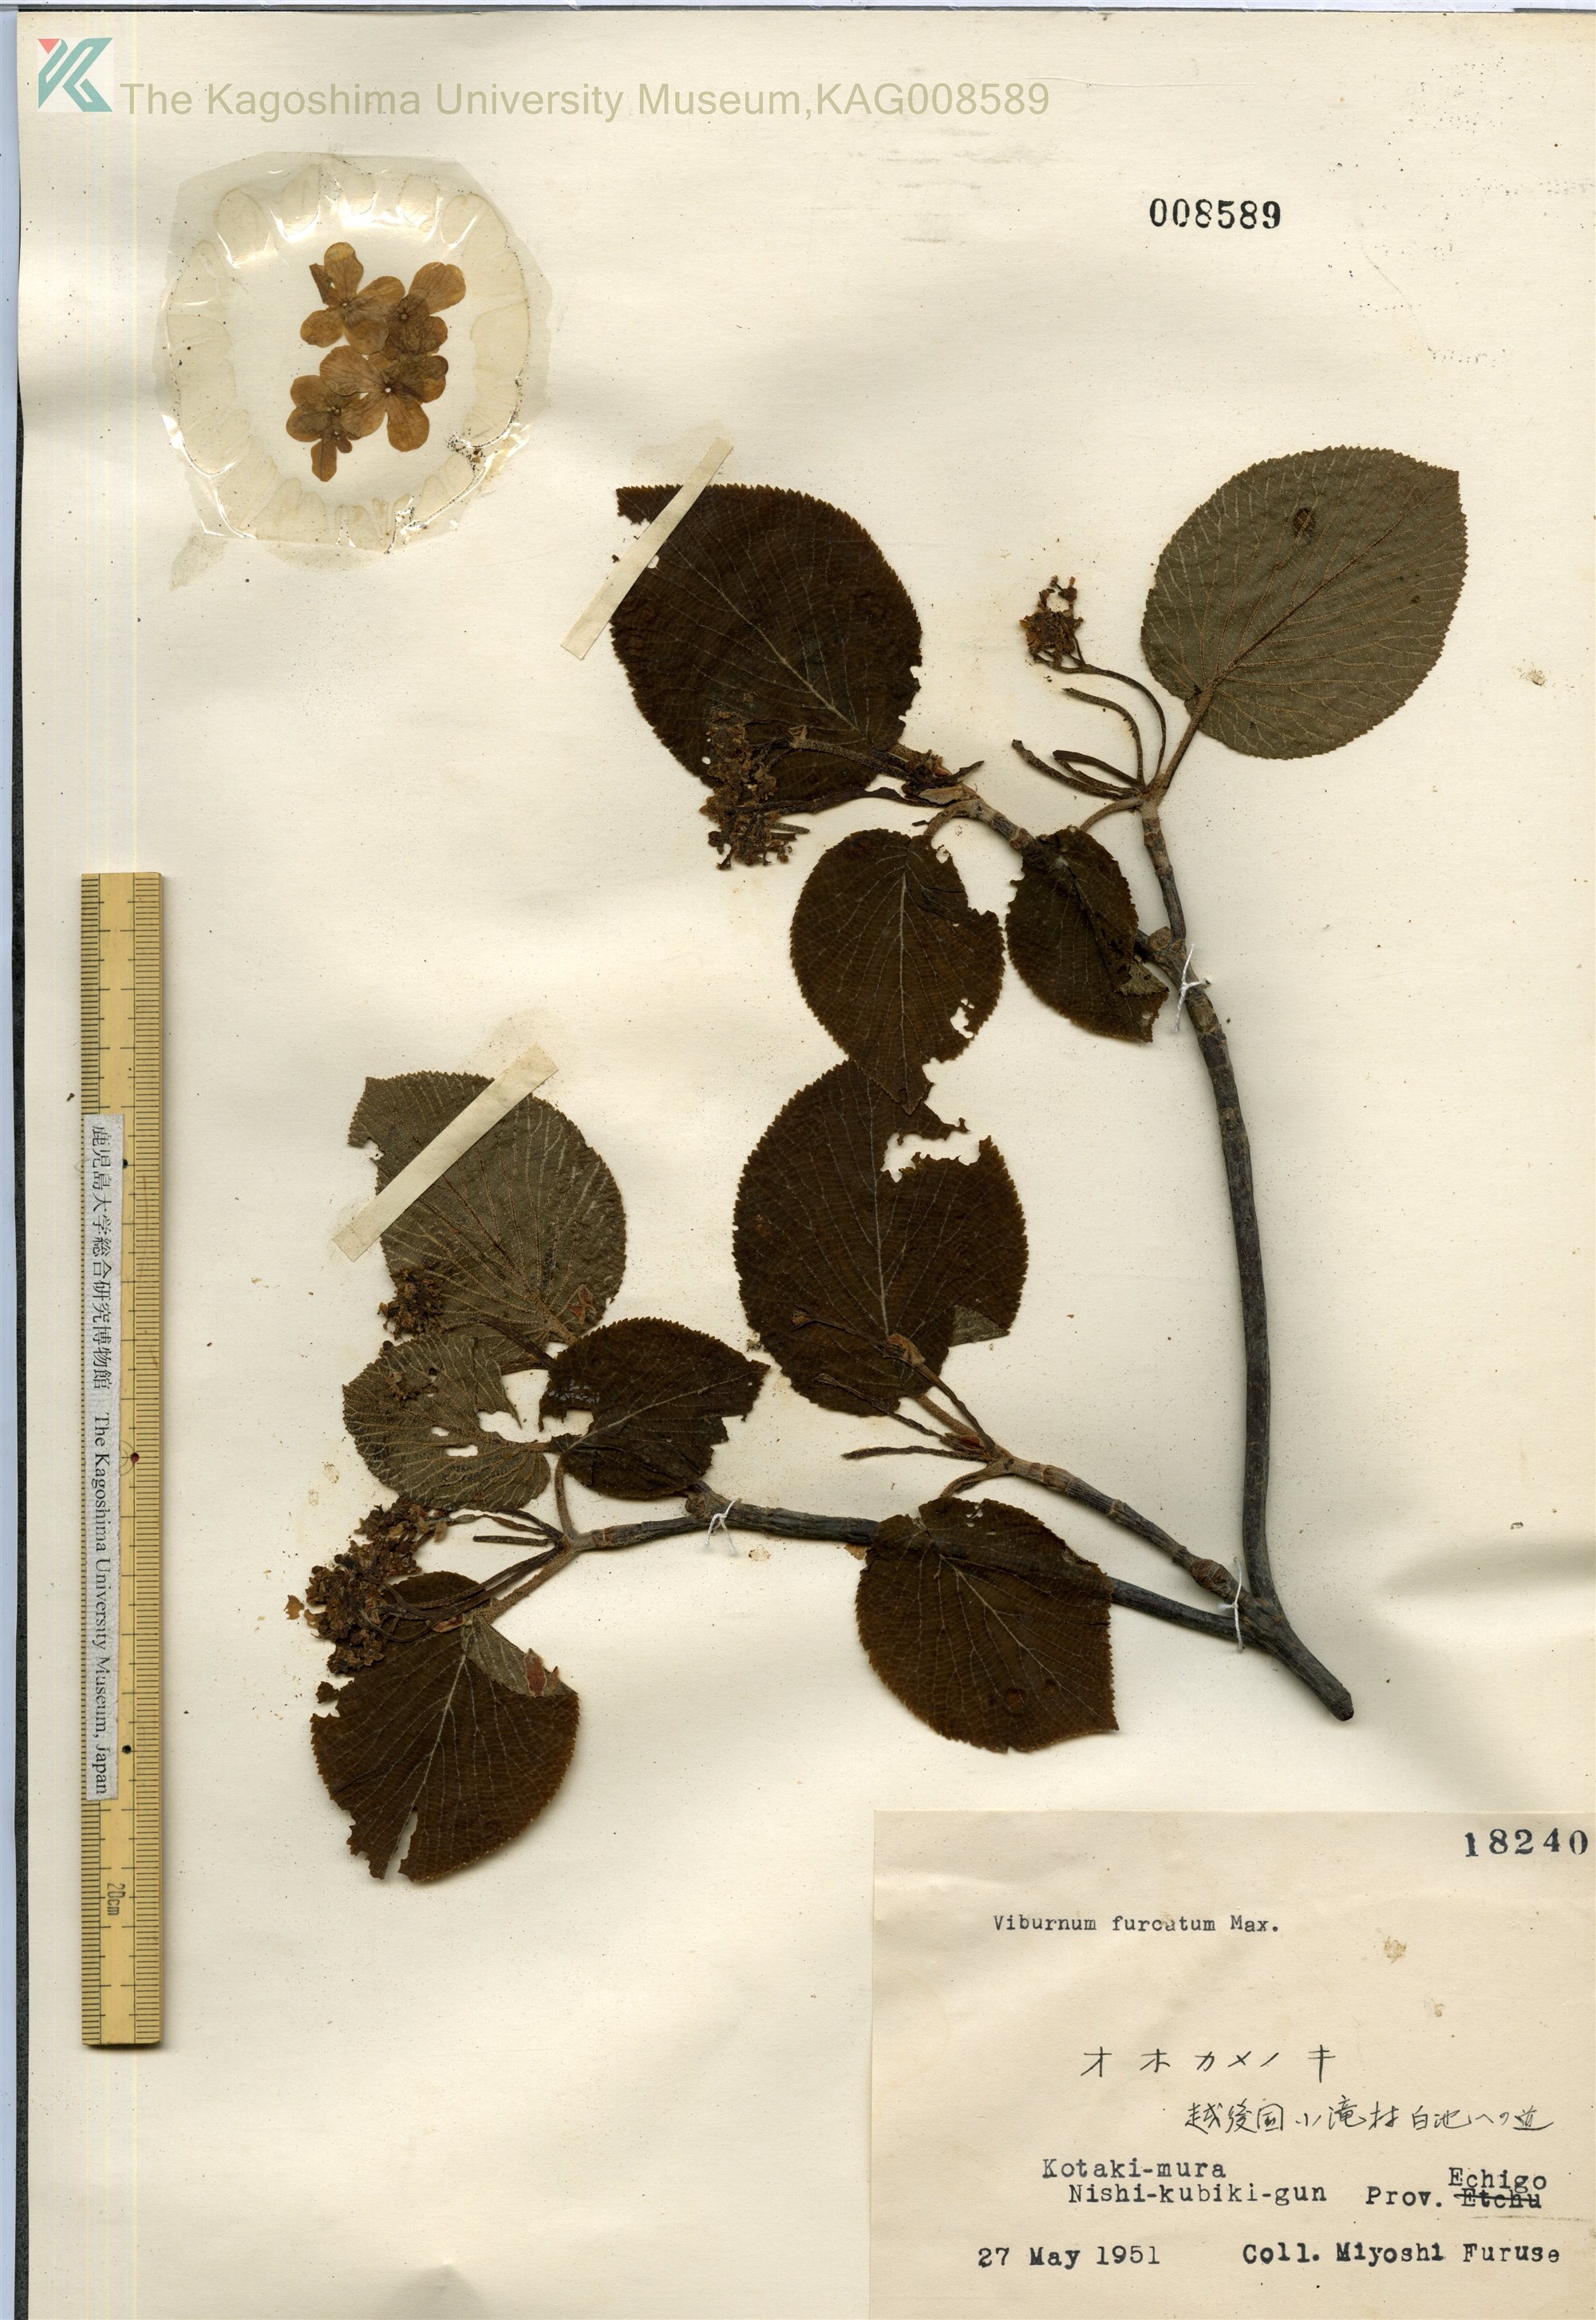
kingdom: Plantae
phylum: Tracheophyta
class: Magnoliopsida
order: Dipsacales
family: Viburnaceae
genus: Viburnum
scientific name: Viburnum furcatum
